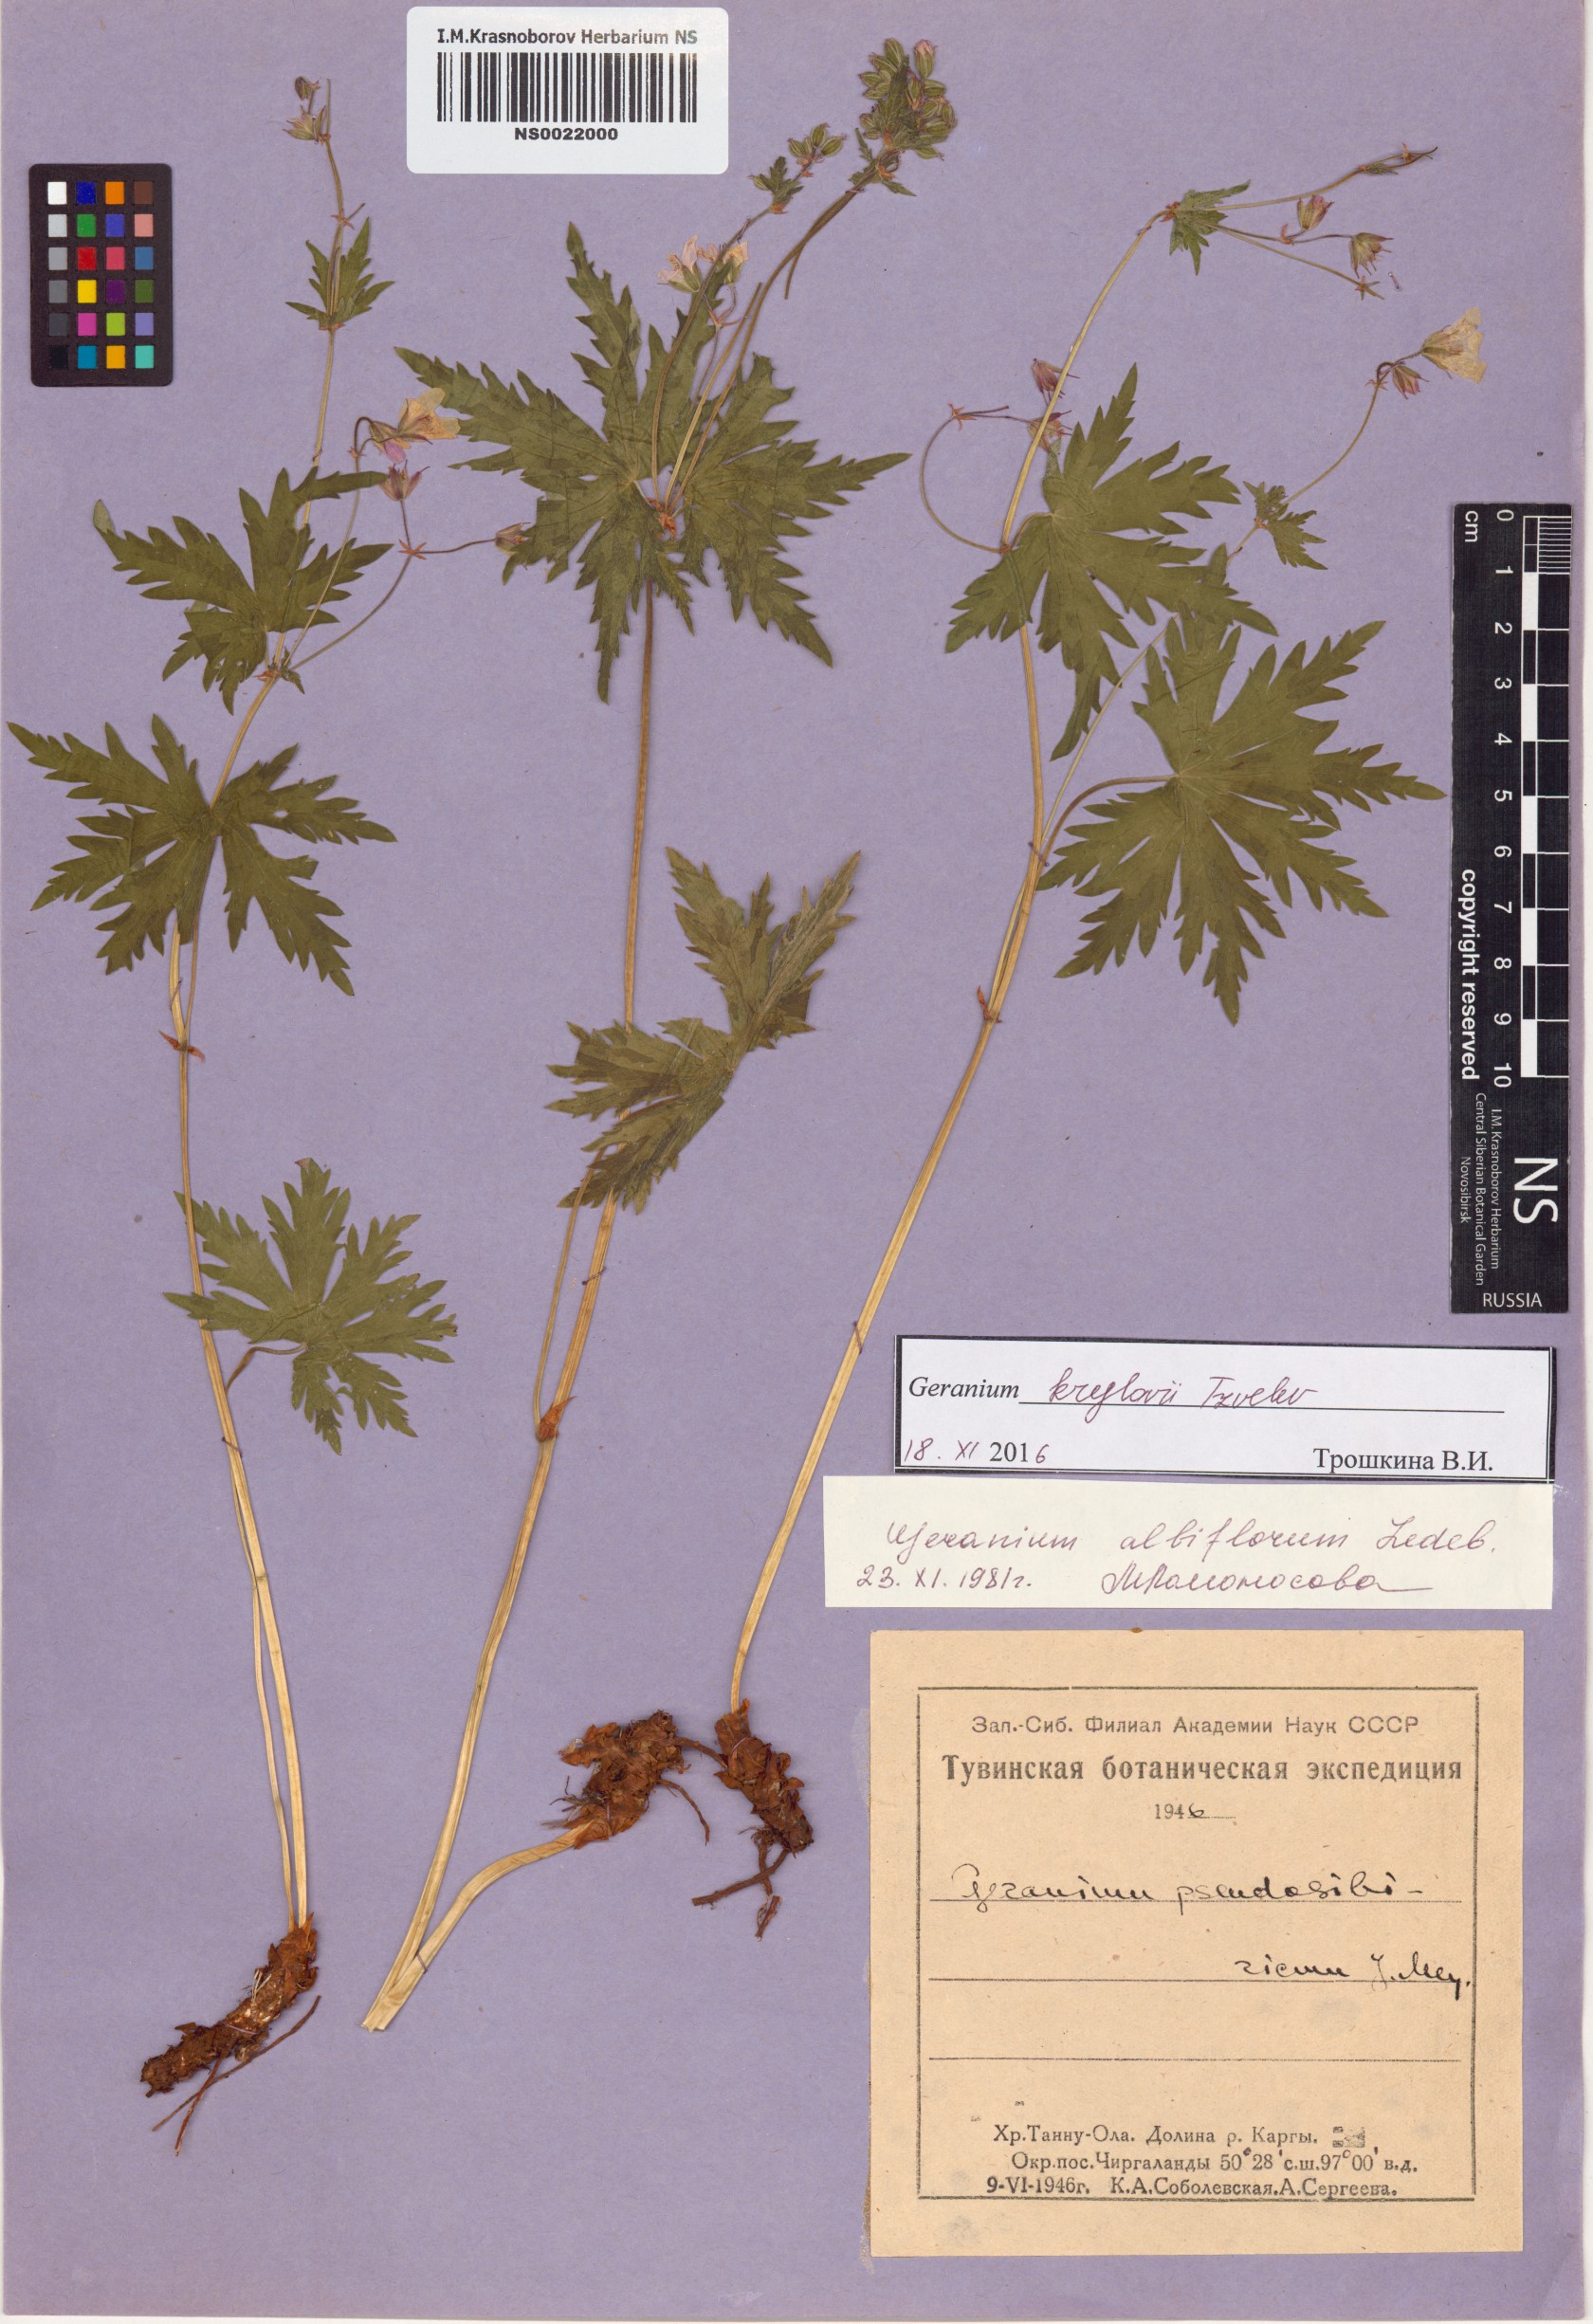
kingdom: Plantae
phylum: Tracheophyta
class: Magnoliopsida
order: Geraniales
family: Geraniaceae
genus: Geranium
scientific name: Geranium sylvaticum
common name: Wood crane's-bill
